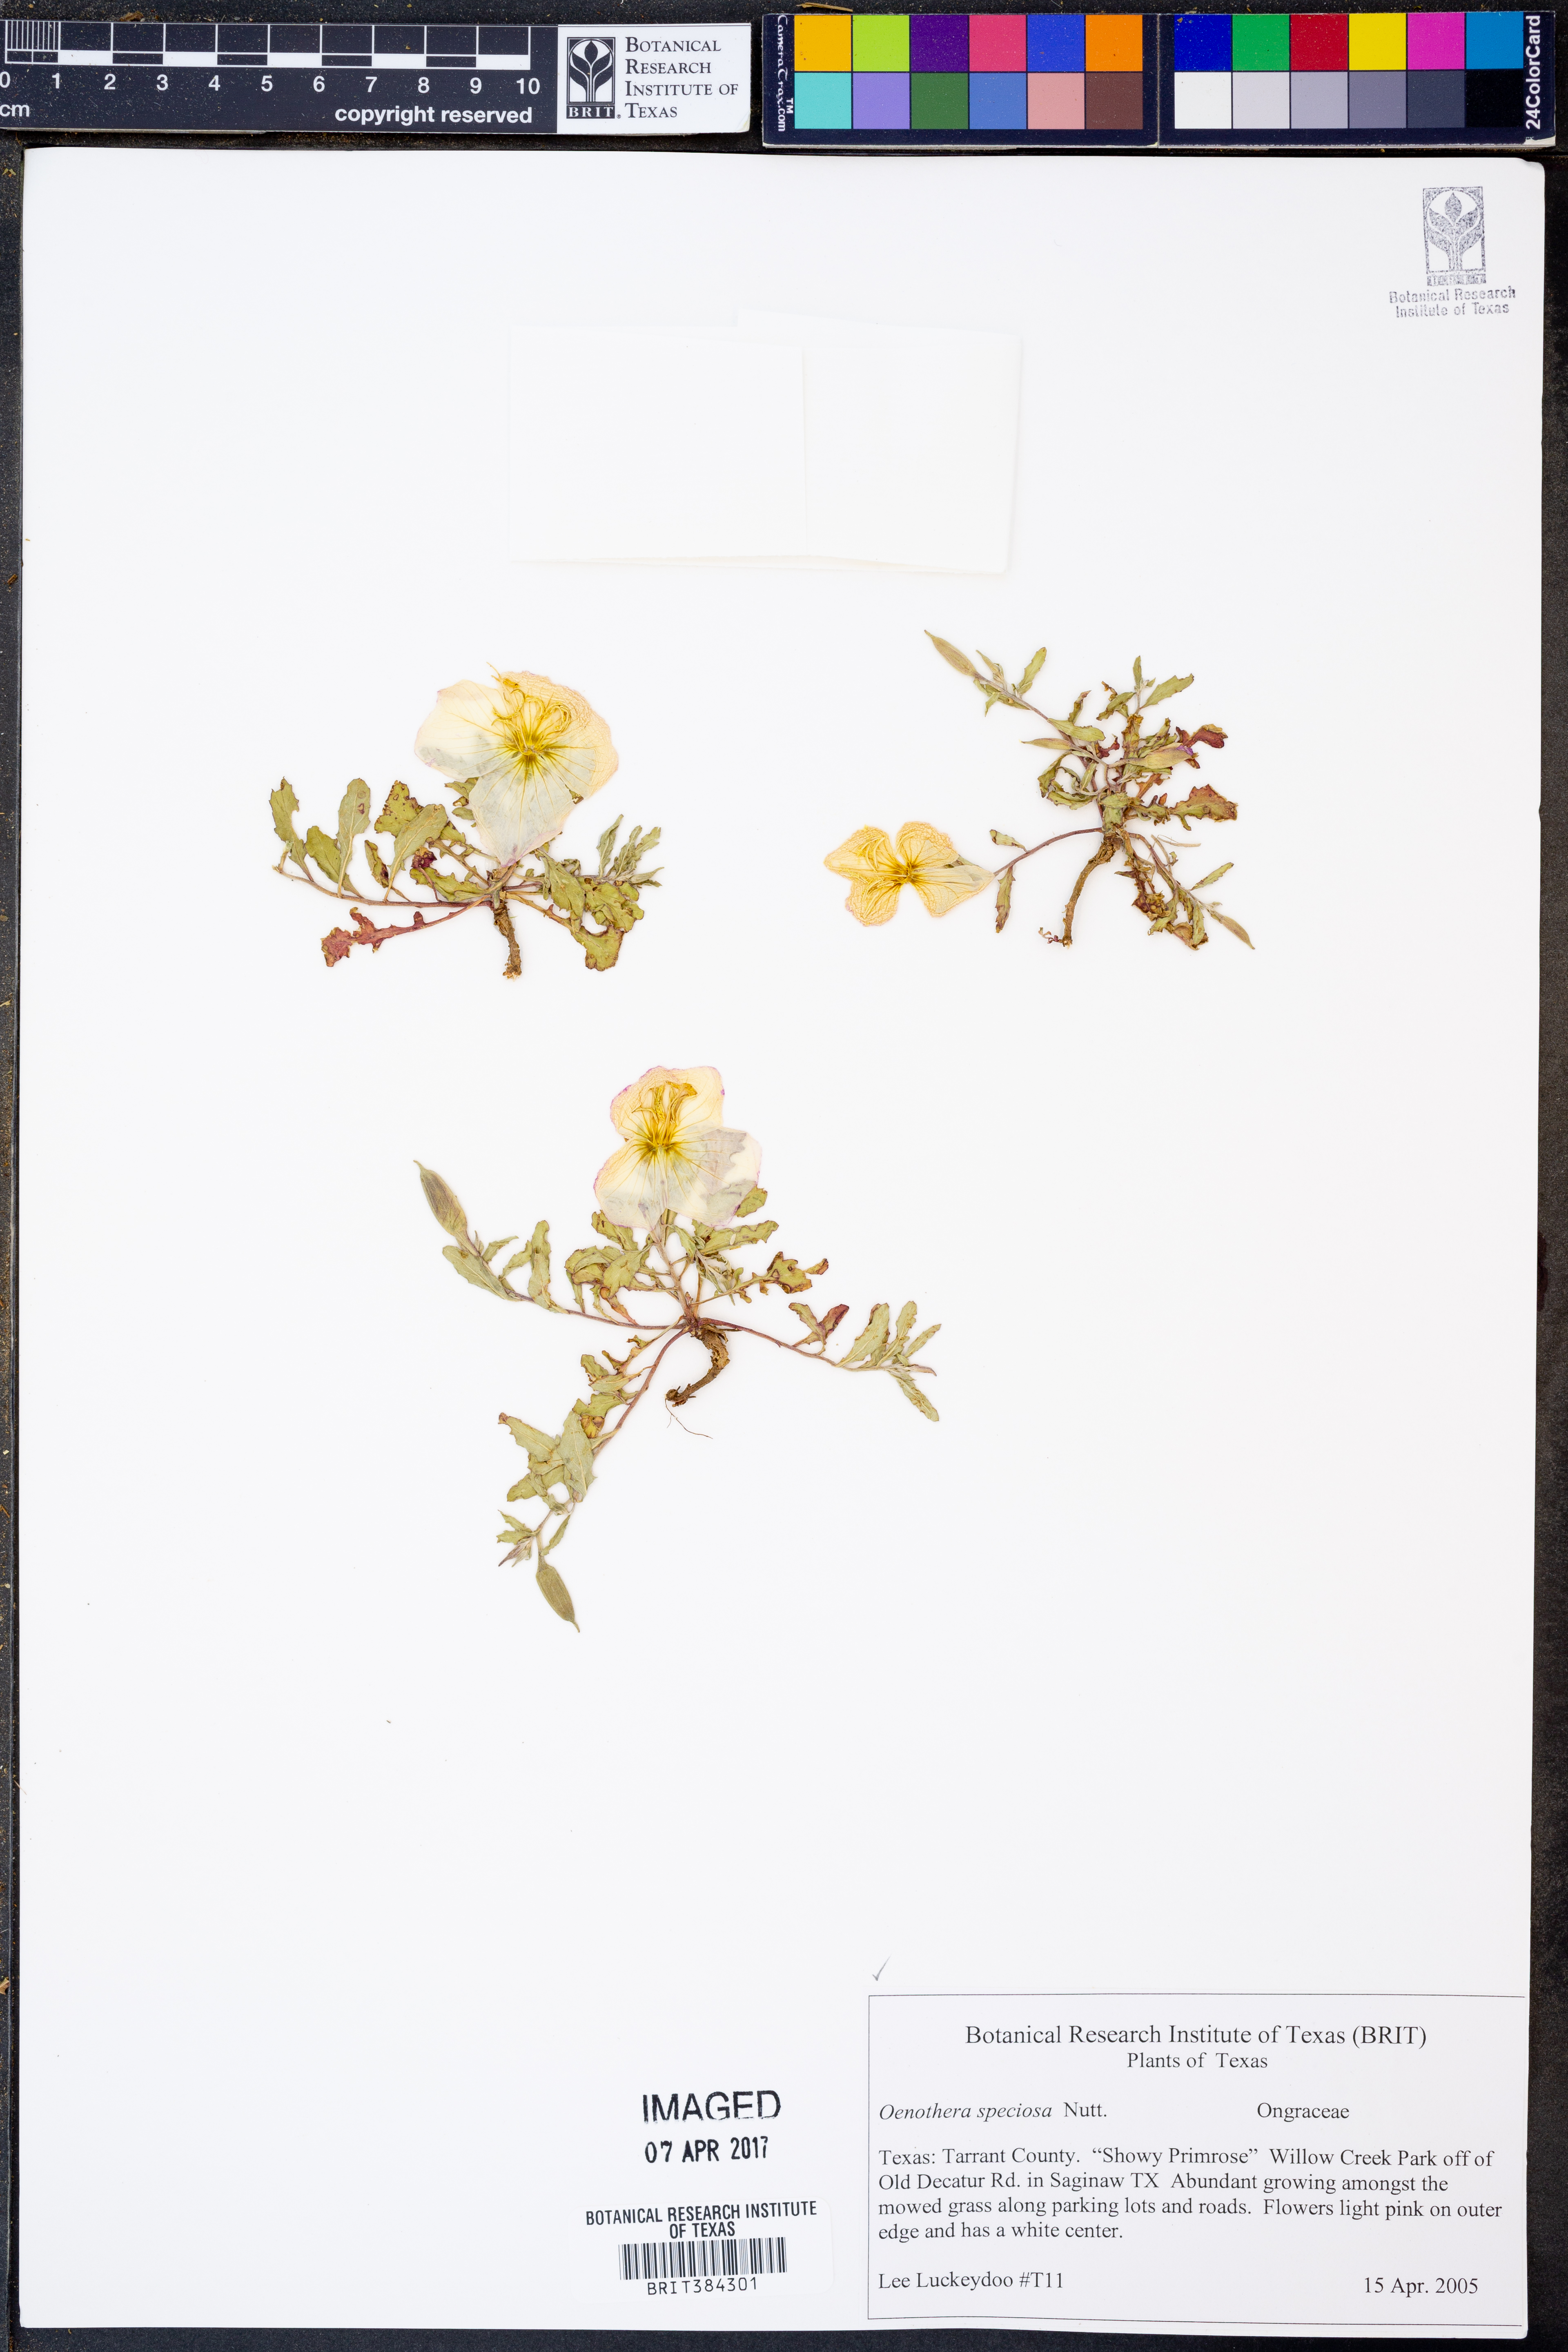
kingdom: Plantae
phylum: Tracheophyta
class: Magnoliopsida
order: Myrtales
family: Onagraceae
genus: Oenothera
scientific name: Oenothera speciosa
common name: White evening-primrose
